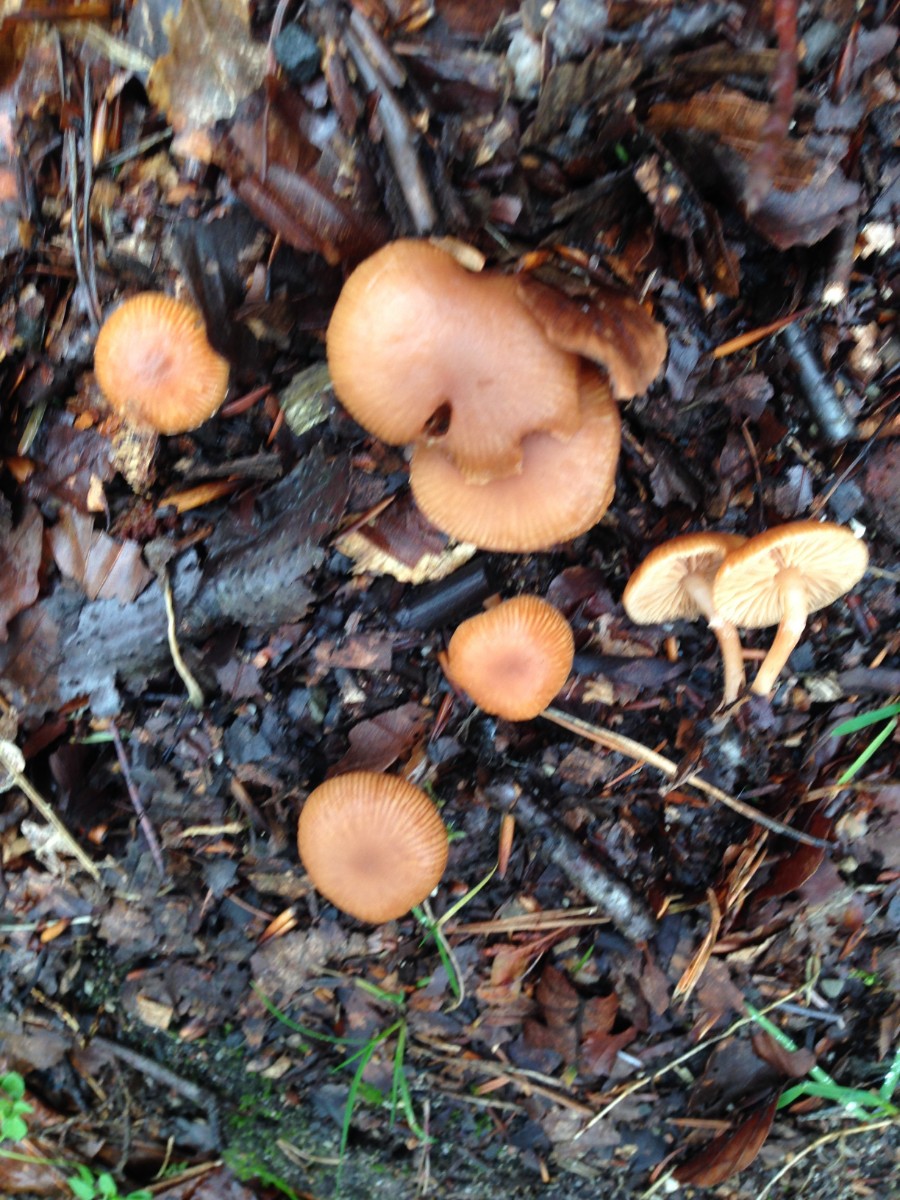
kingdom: Fungi
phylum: Basidiomycota
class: Agaricomycetes
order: Agaricales
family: Tubariaceae
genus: Tubaria
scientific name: Tubaria furfuracea
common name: kliddet fnughat
